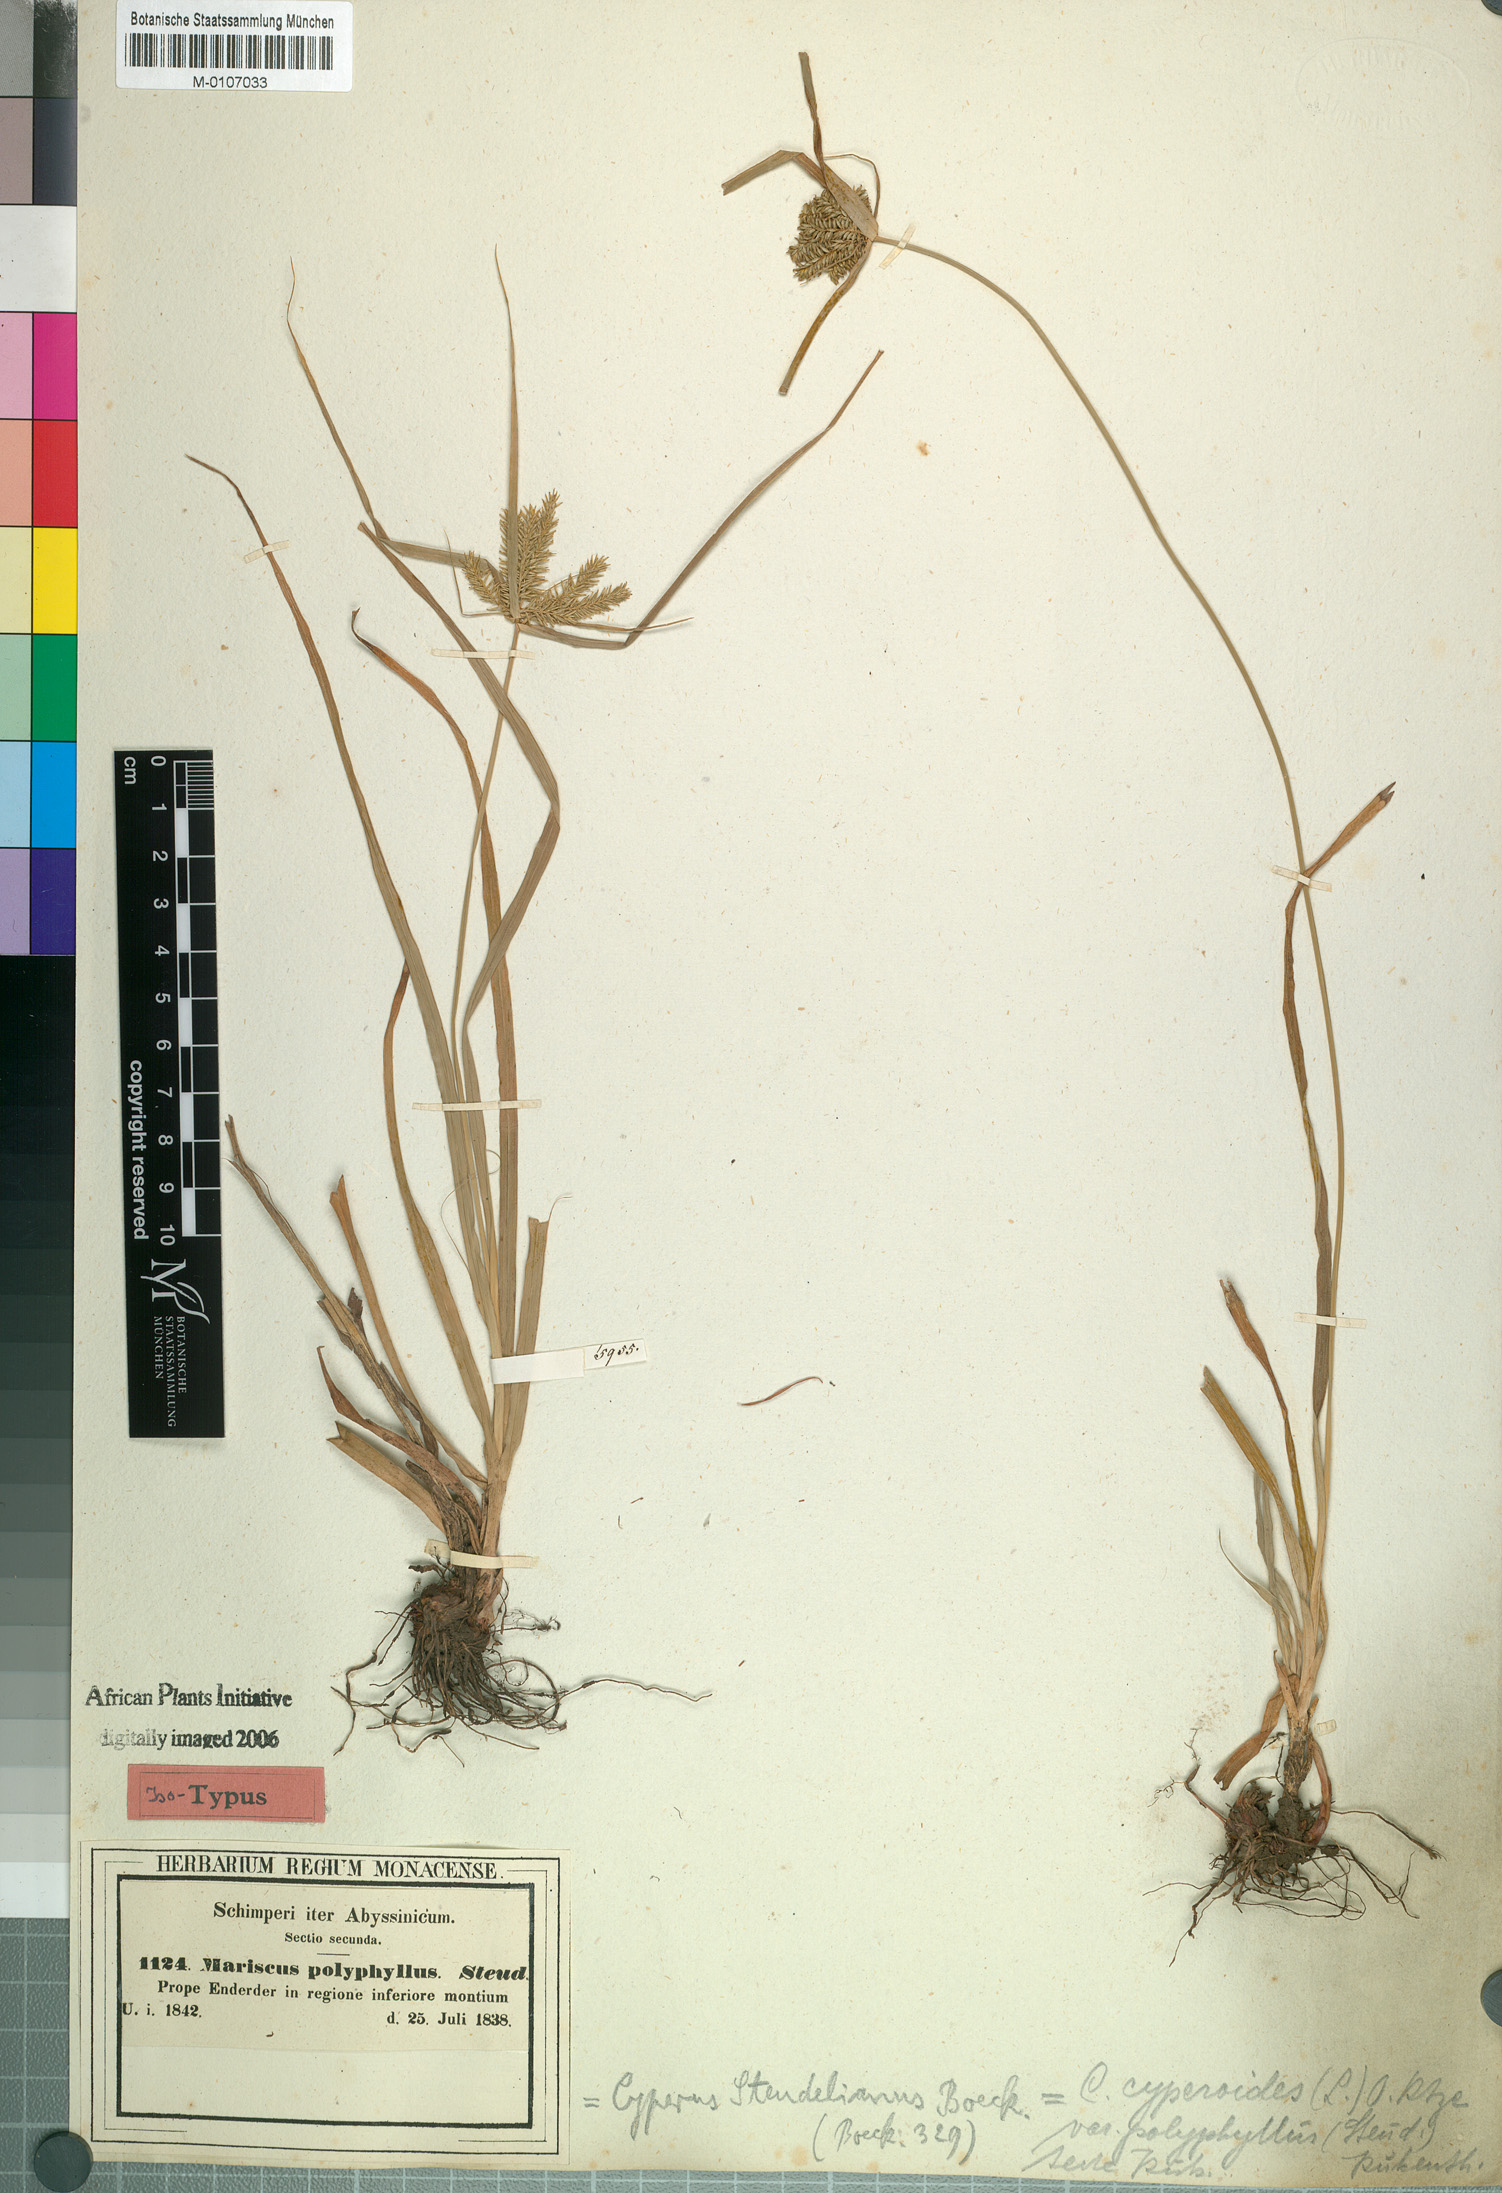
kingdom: Plantae
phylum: Tracheophyta
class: Liliopsida
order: Poales
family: Cyperaceae
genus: Cyperus
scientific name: Cyperus
